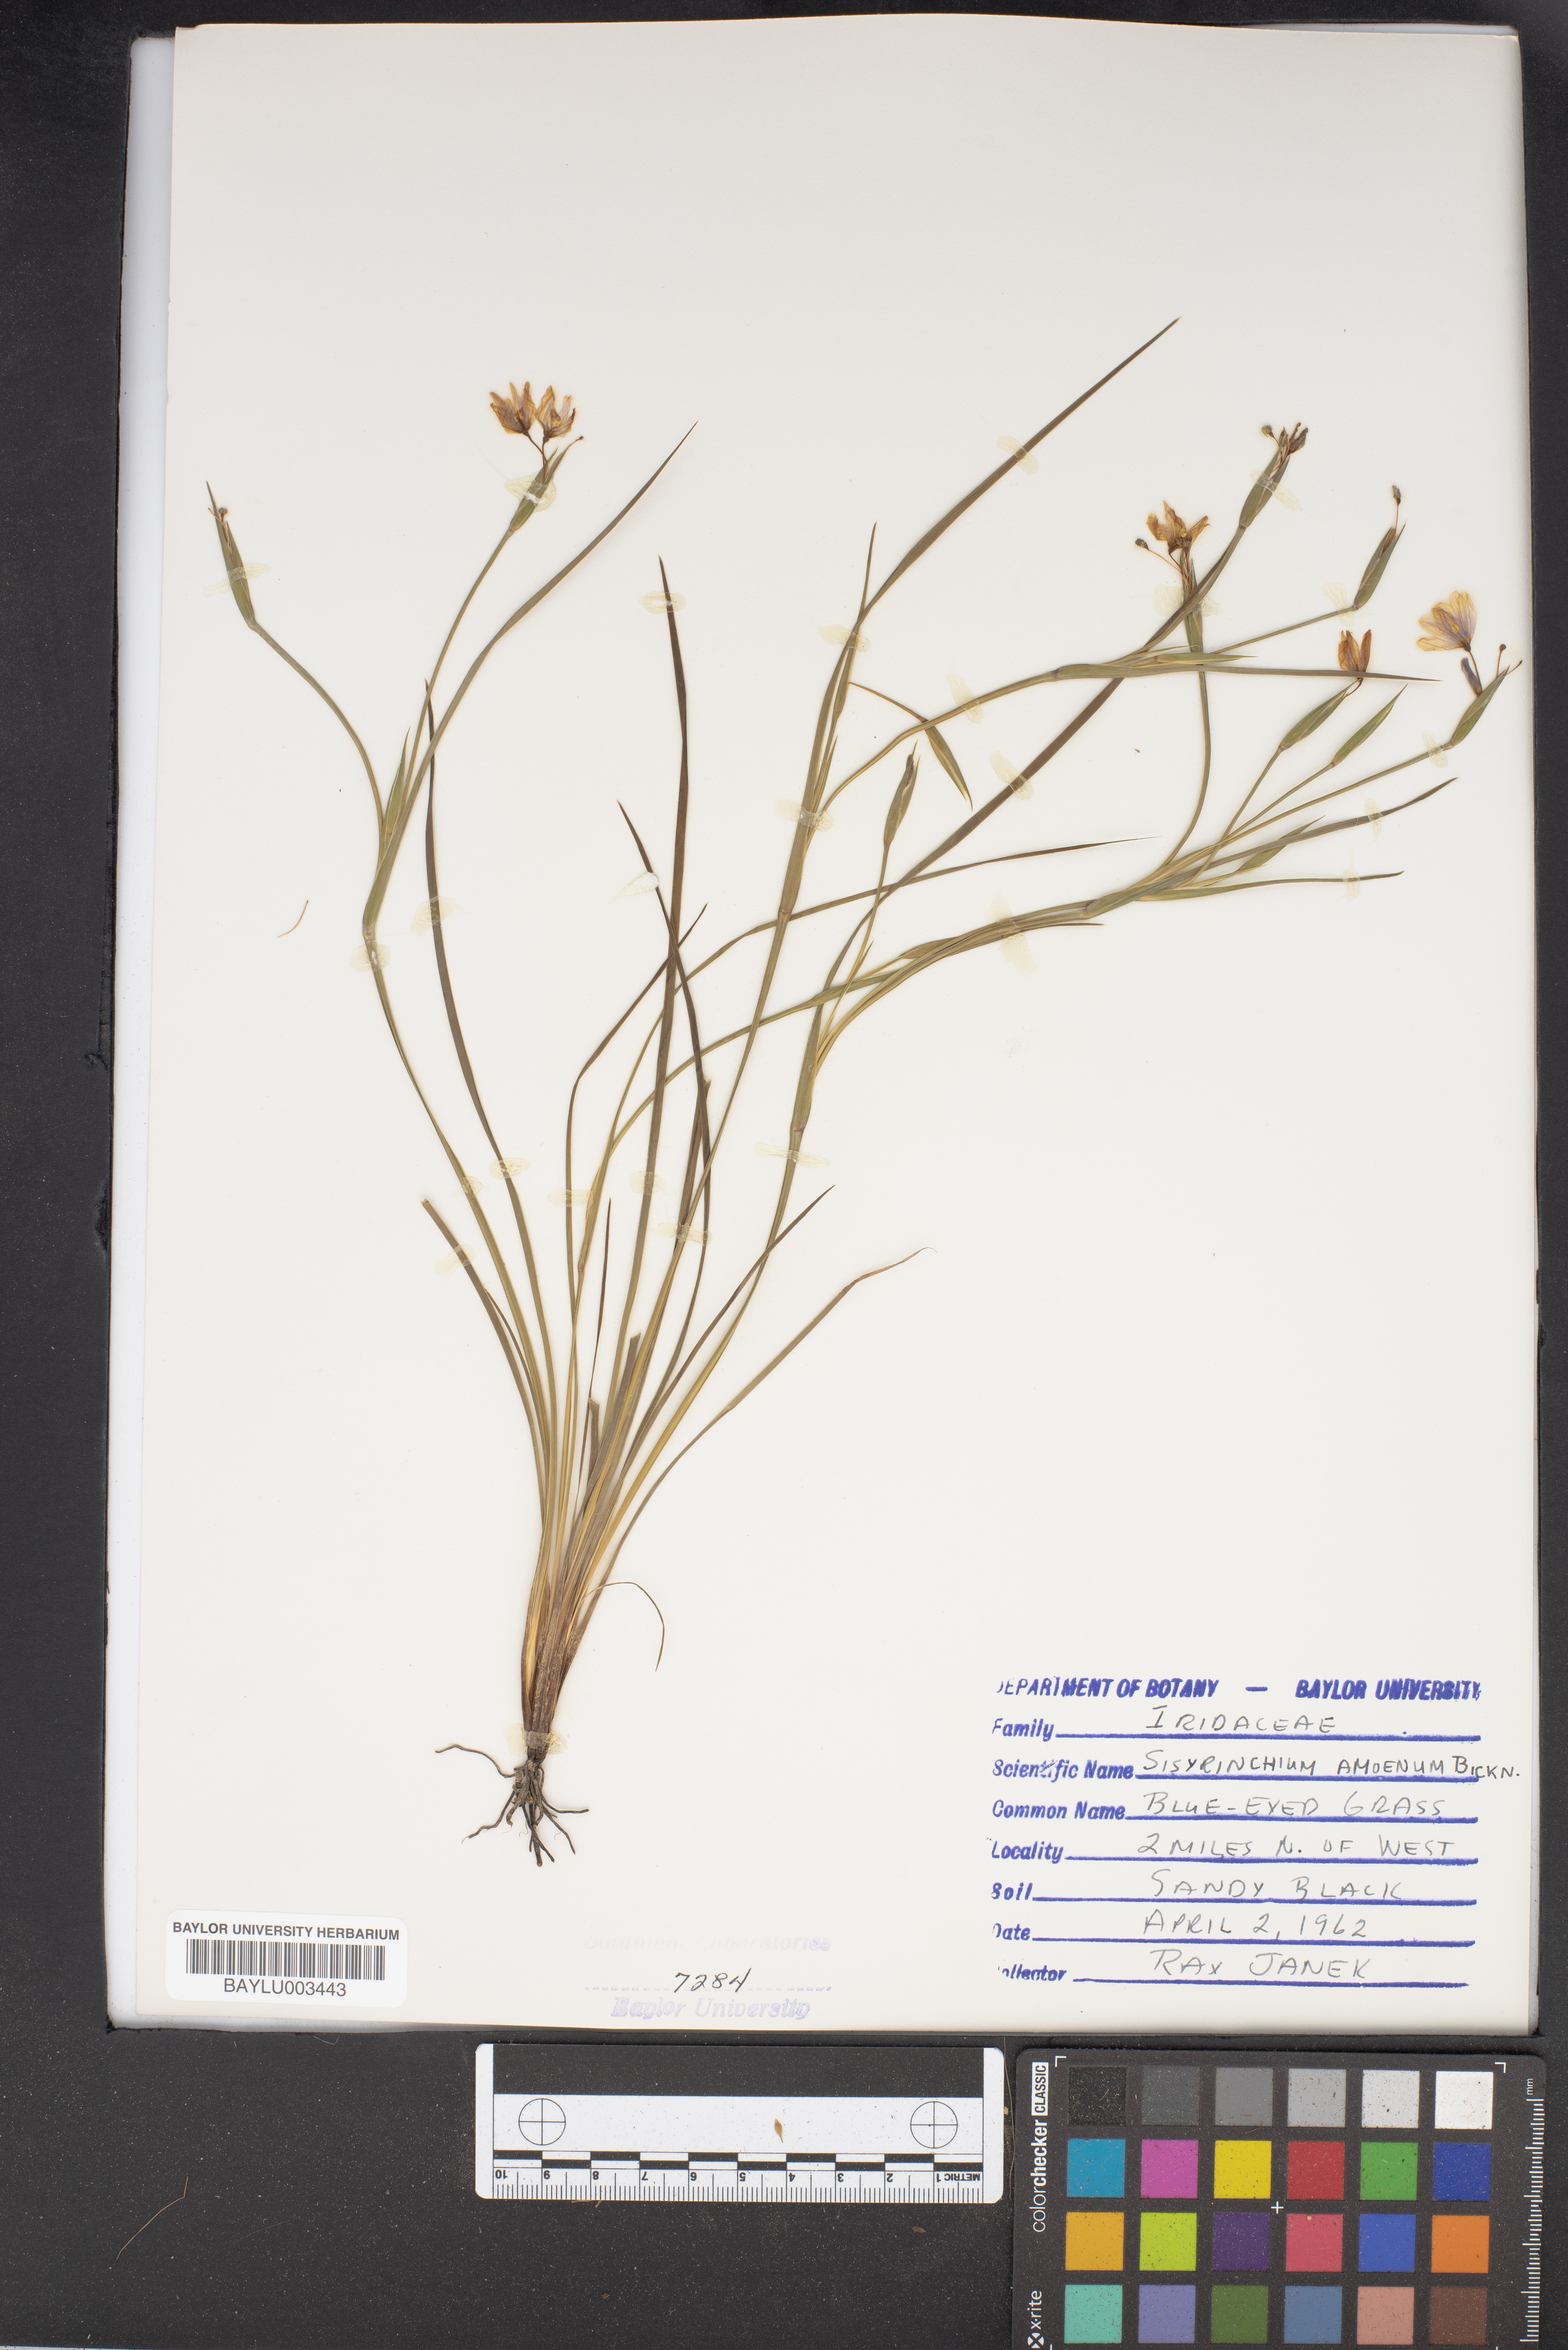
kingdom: Plantae
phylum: Tracheophyta
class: Liliopsida
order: Asparagales
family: Iridaceae
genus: Sisyrinchium
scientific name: Sisyrinchium ensigerum
